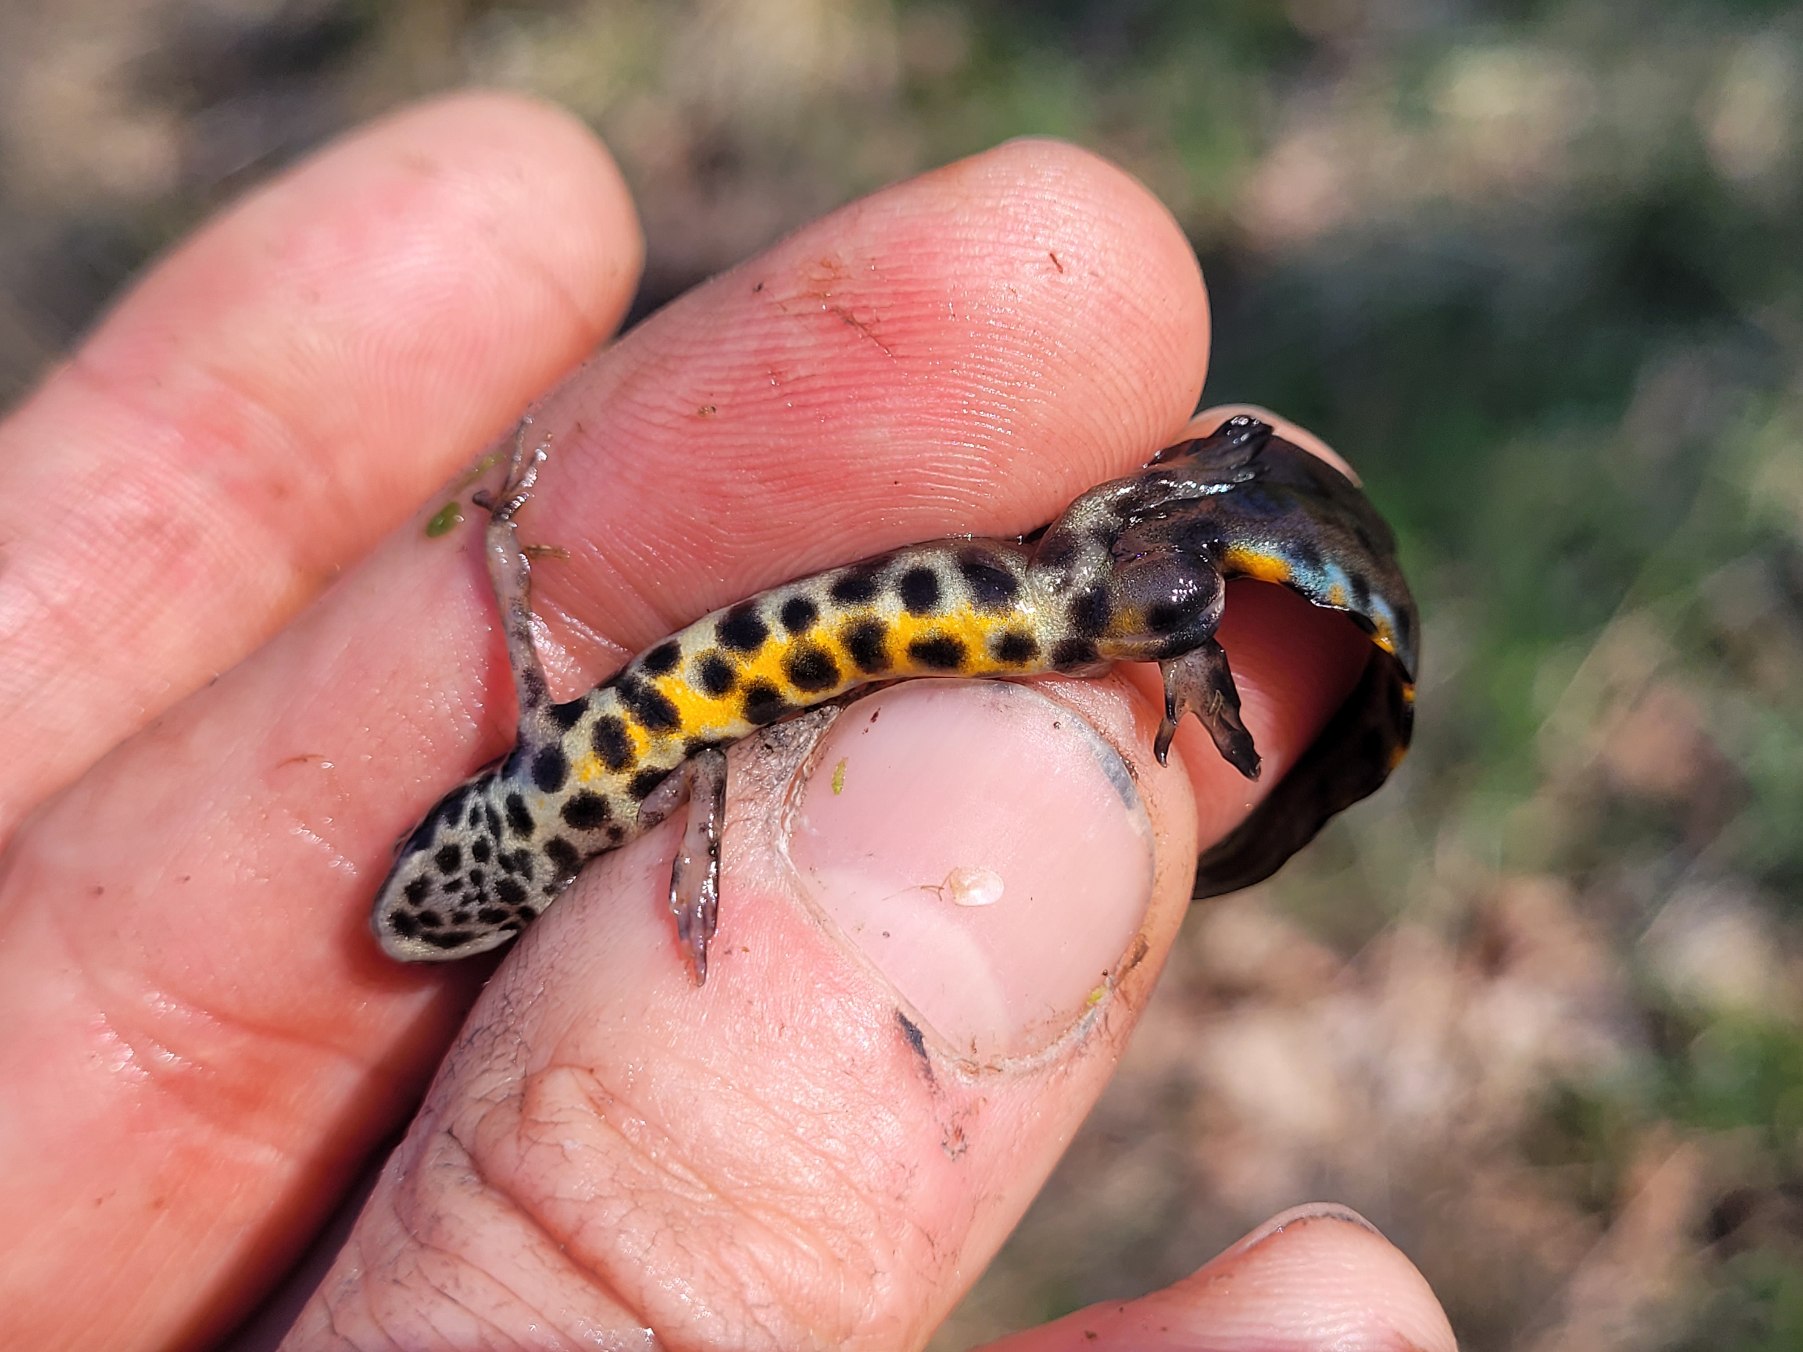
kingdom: Animalia
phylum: Chordata
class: Amphibia
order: Caudata
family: Salamandridae
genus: Lissotriton
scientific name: Lissotriton vulgaris
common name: Lille vandsalamander
